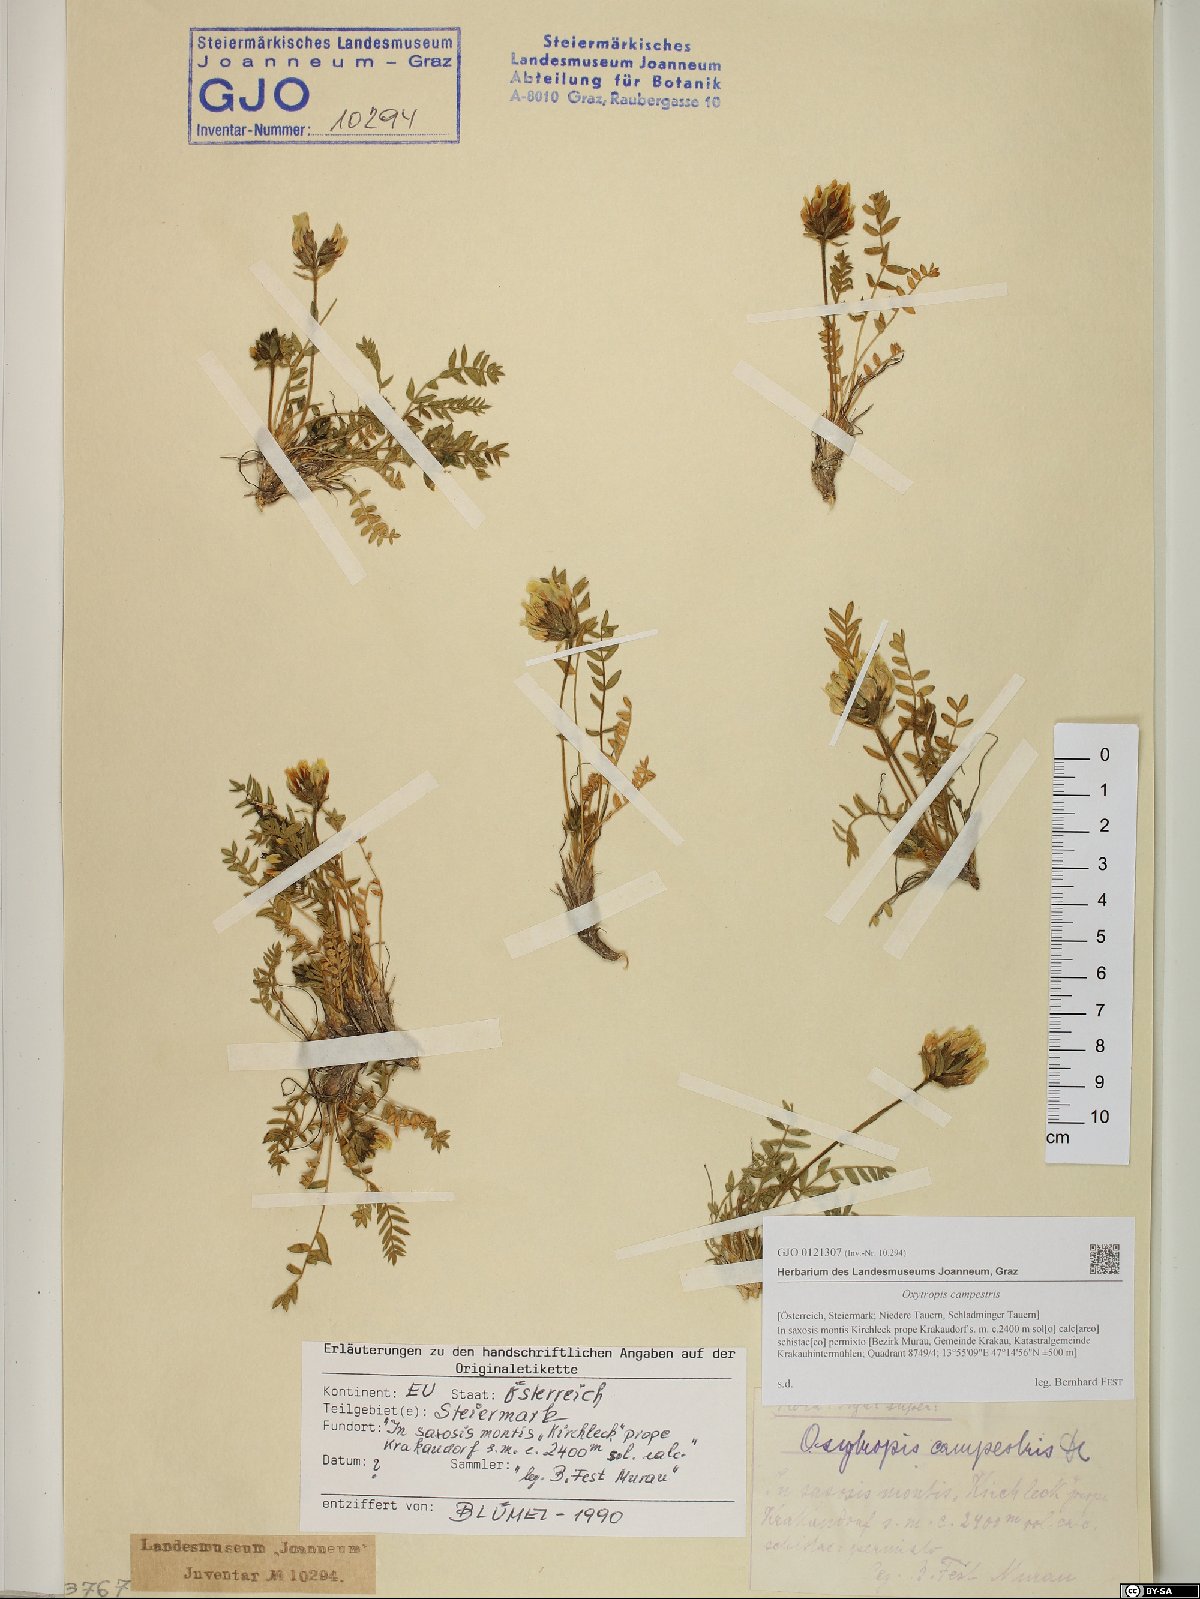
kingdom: Plantae
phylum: Tracheophyta
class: Magnoliopsida
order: Fabales
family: Fabaceae
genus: Oxytropis
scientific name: Oxytropis campestris
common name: Field locoweed
